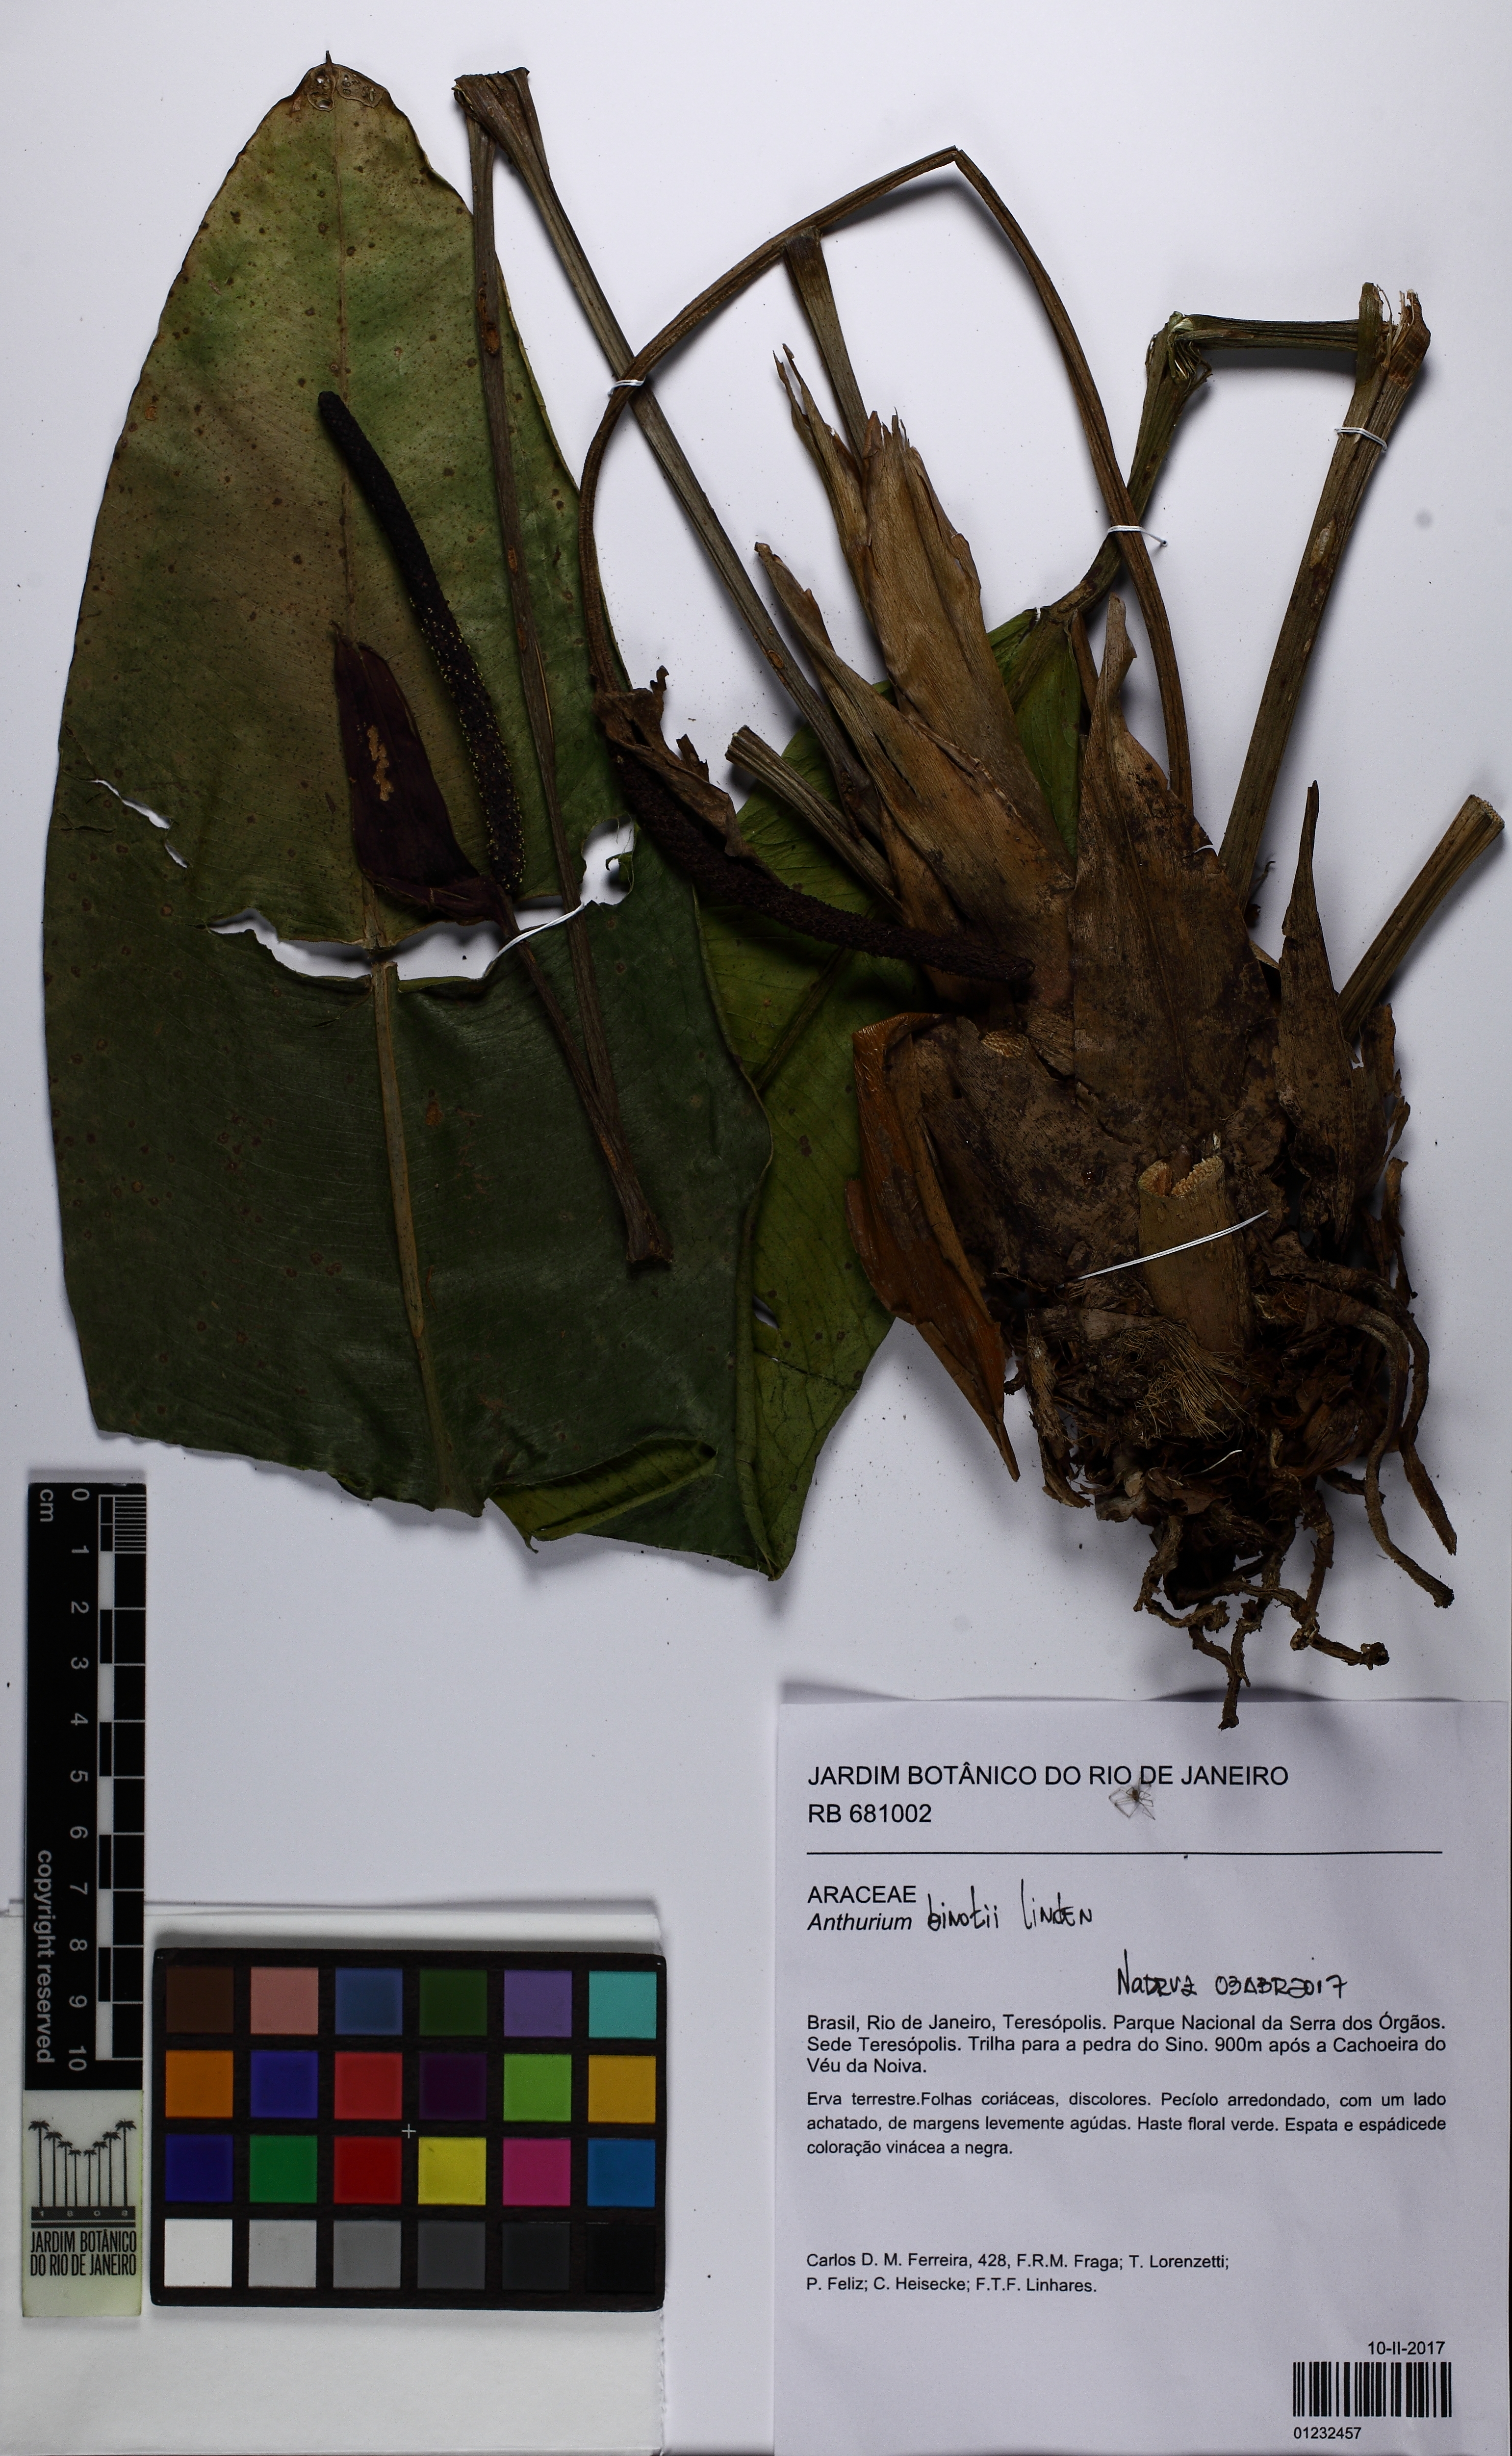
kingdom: Plantae
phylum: Tracheophyta
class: Liliopsida
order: Alismatales
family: Araceae
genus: Anthurium
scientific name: Anthurium binotii
